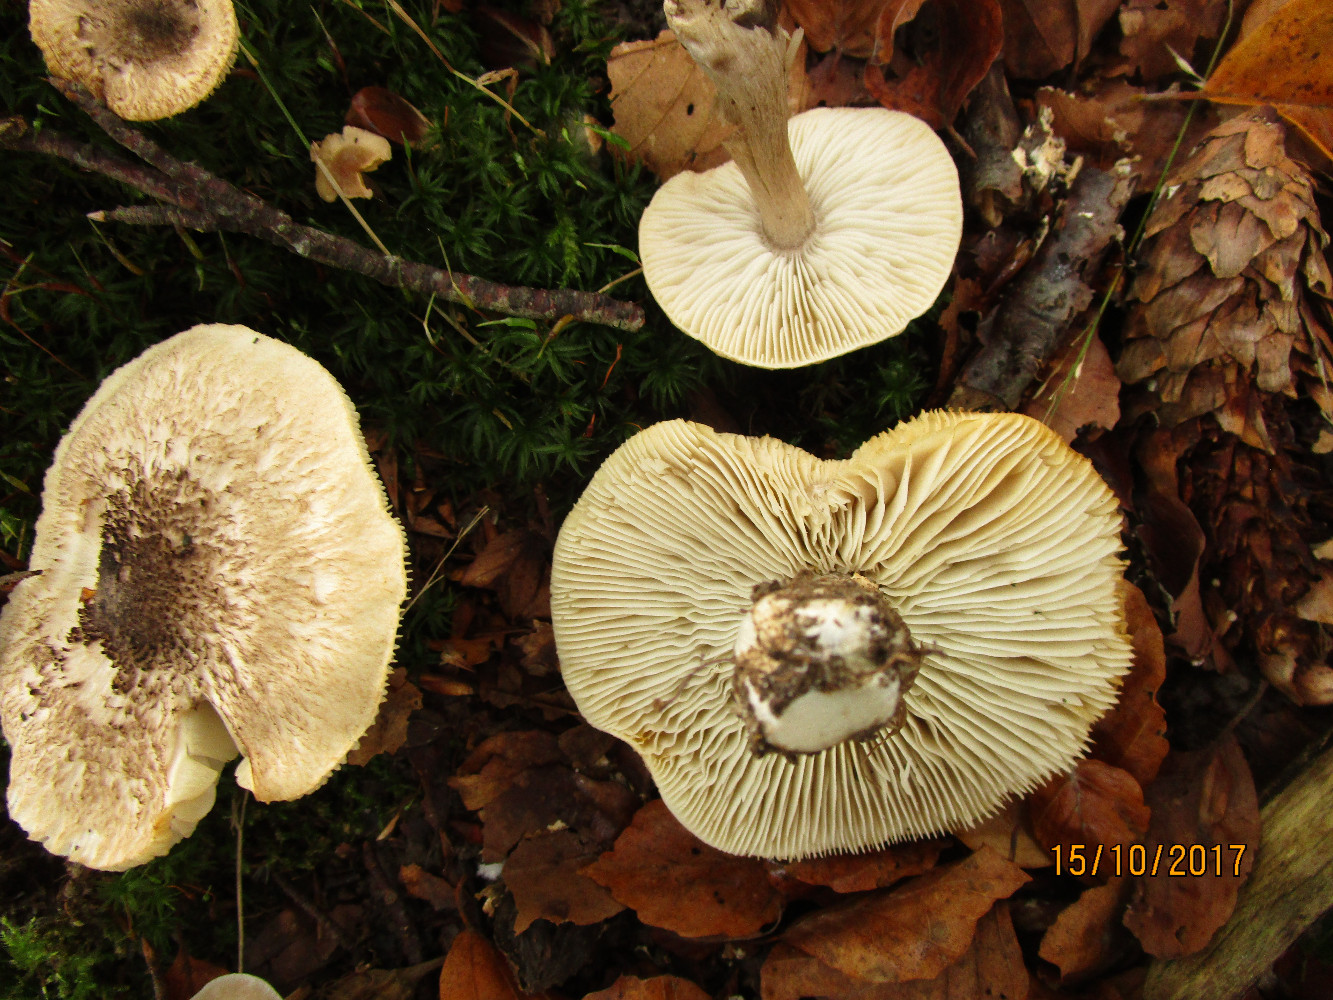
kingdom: Fungi
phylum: Basidiomycota
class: Agaricomycetes
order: Agaricales
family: Tricholomataceae
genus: Tricholoma
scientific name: Tricholoma scalpturatum
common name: gulplettet ridderhat
